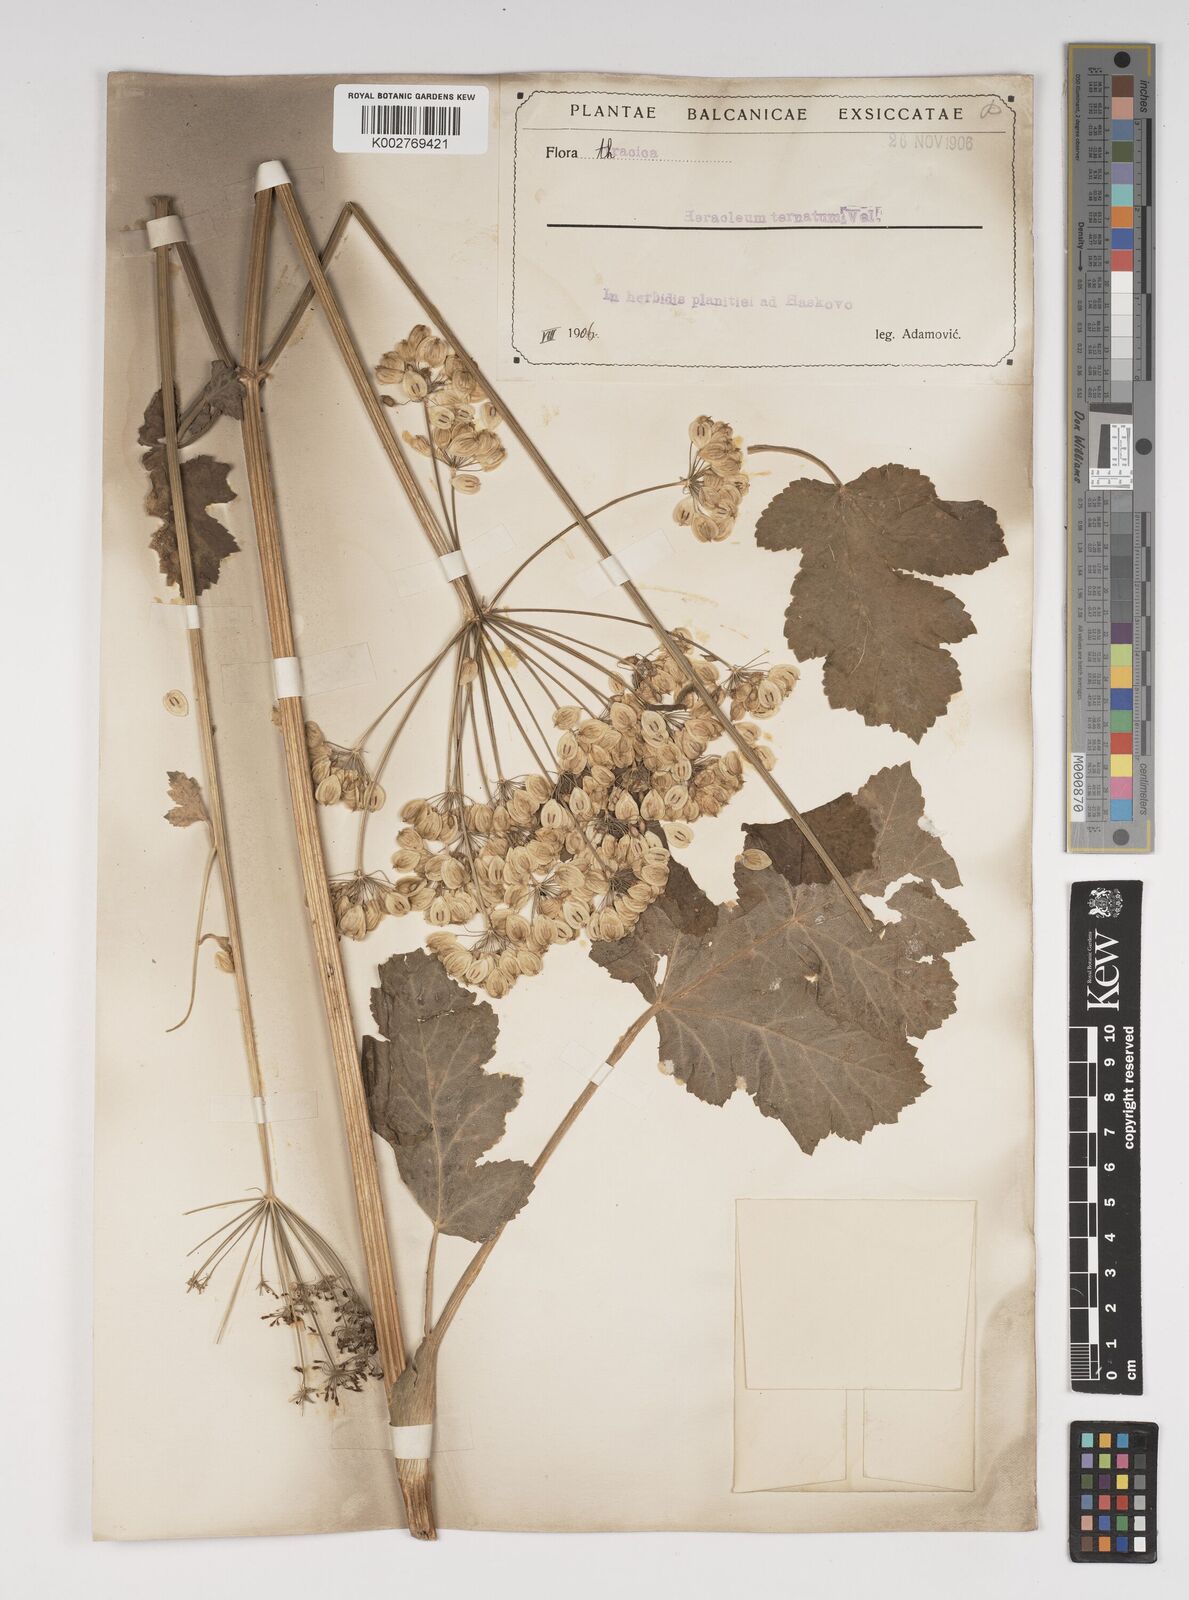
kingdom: Plantae
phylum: Tracheophyta
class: Magnoliopsida
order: Apiales
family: Apiaceae
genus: Heracleum
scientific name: Heracleum sphondylium
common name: Hogweed
